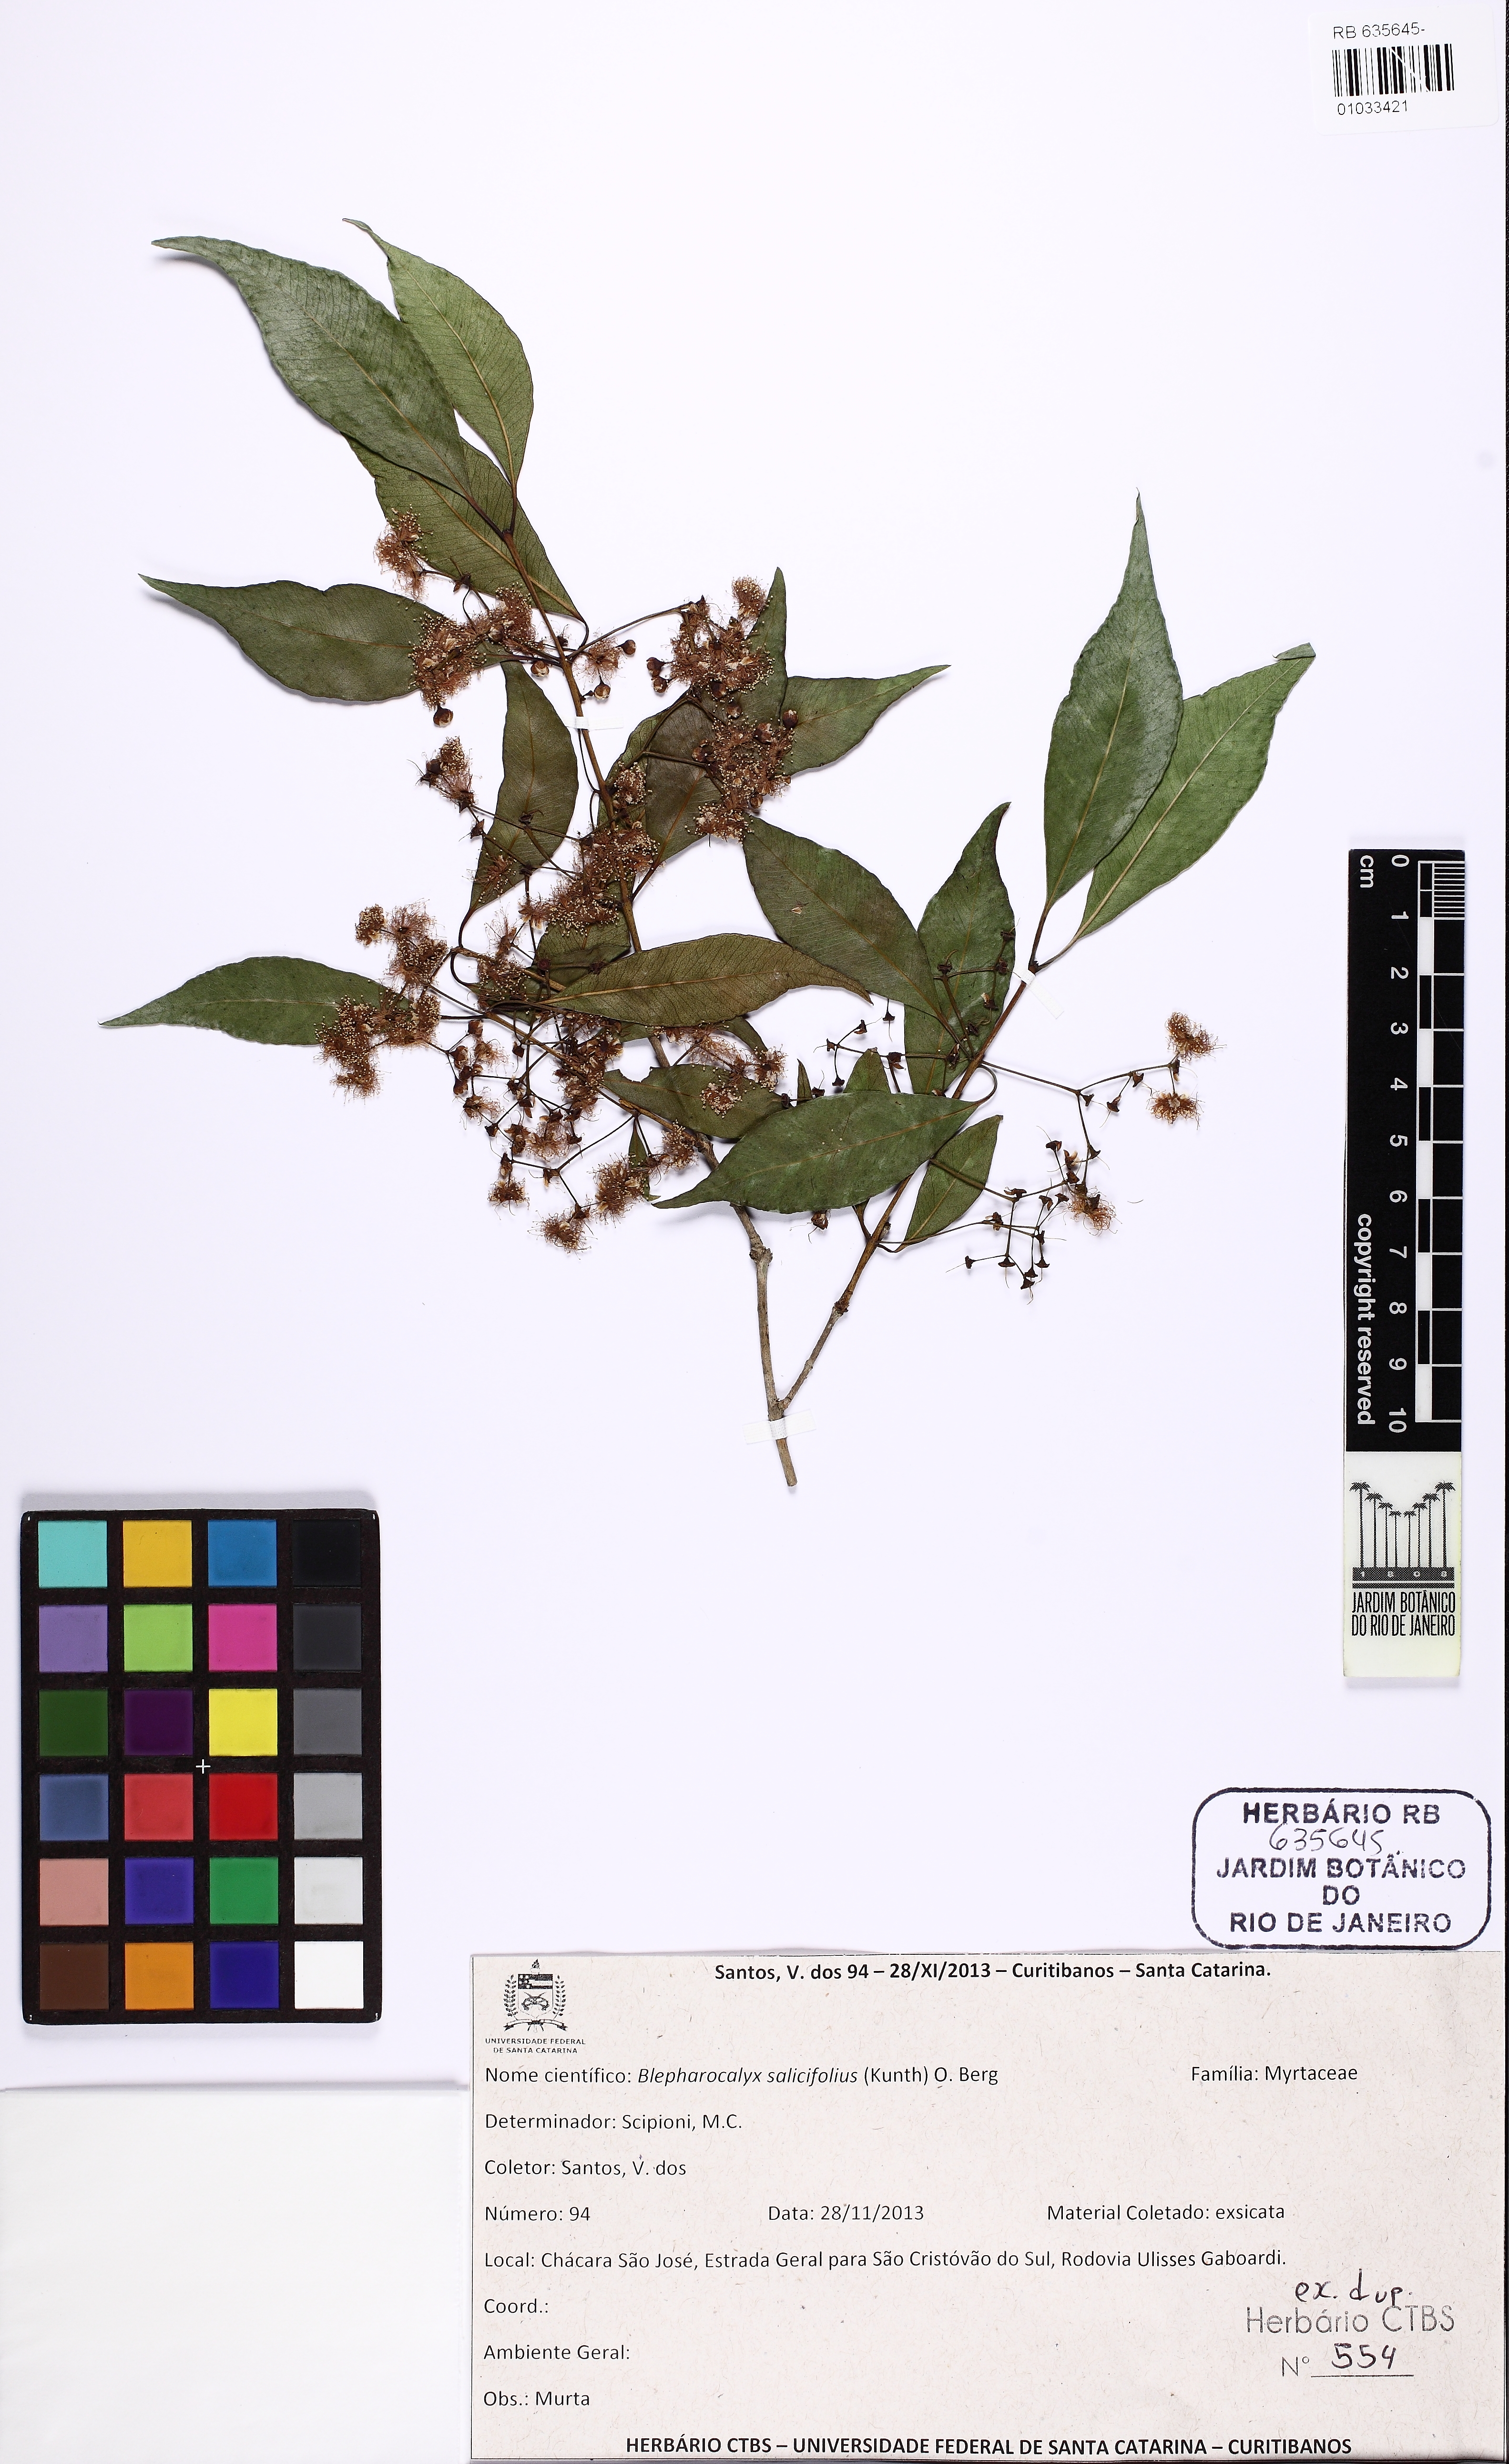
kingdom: Plantae
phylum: Tracheophyta
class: Magnoliopsida
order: Myrtales
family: Myrtaceae
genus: Blepharocalyx
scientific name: Blepharocalyx salicifolius
